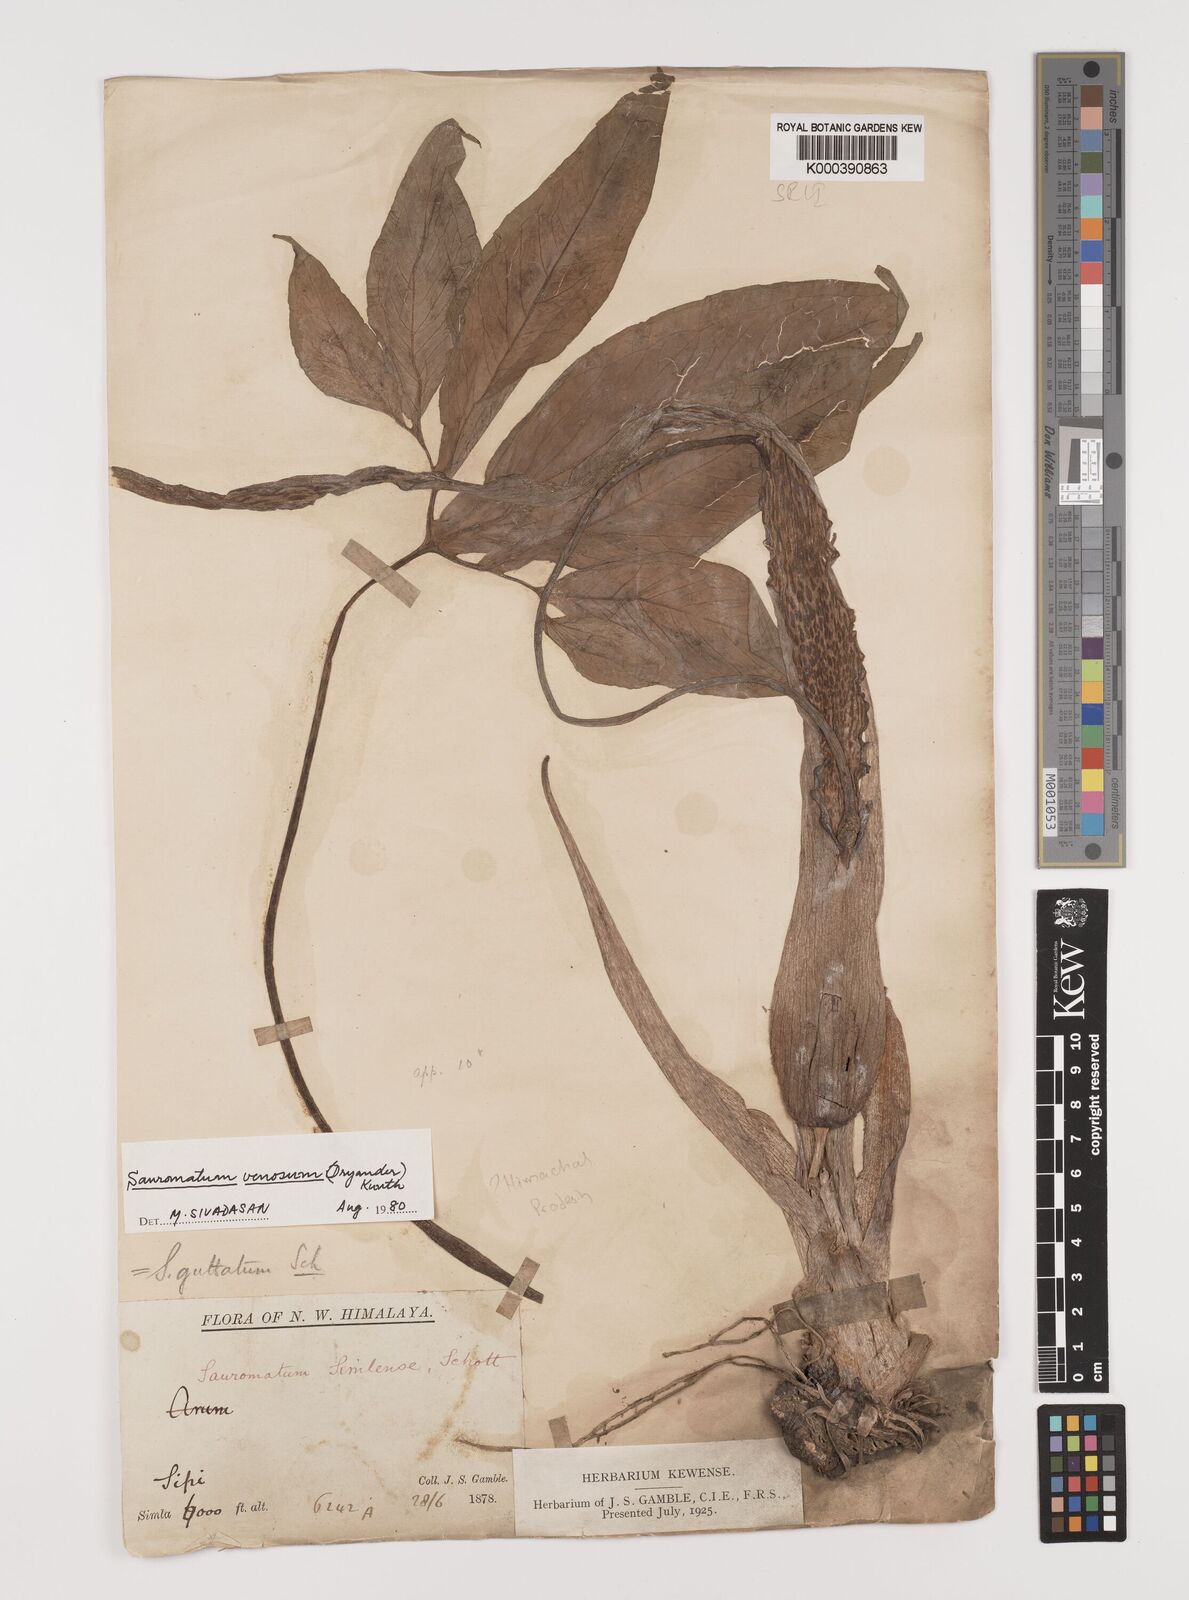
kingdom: Plantae
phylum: Tracheophyta
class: Liliopsida
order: Alismatales
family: Araceae
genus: Sauromatum
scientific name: Sauromatum venosum
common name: Voodoo lily
